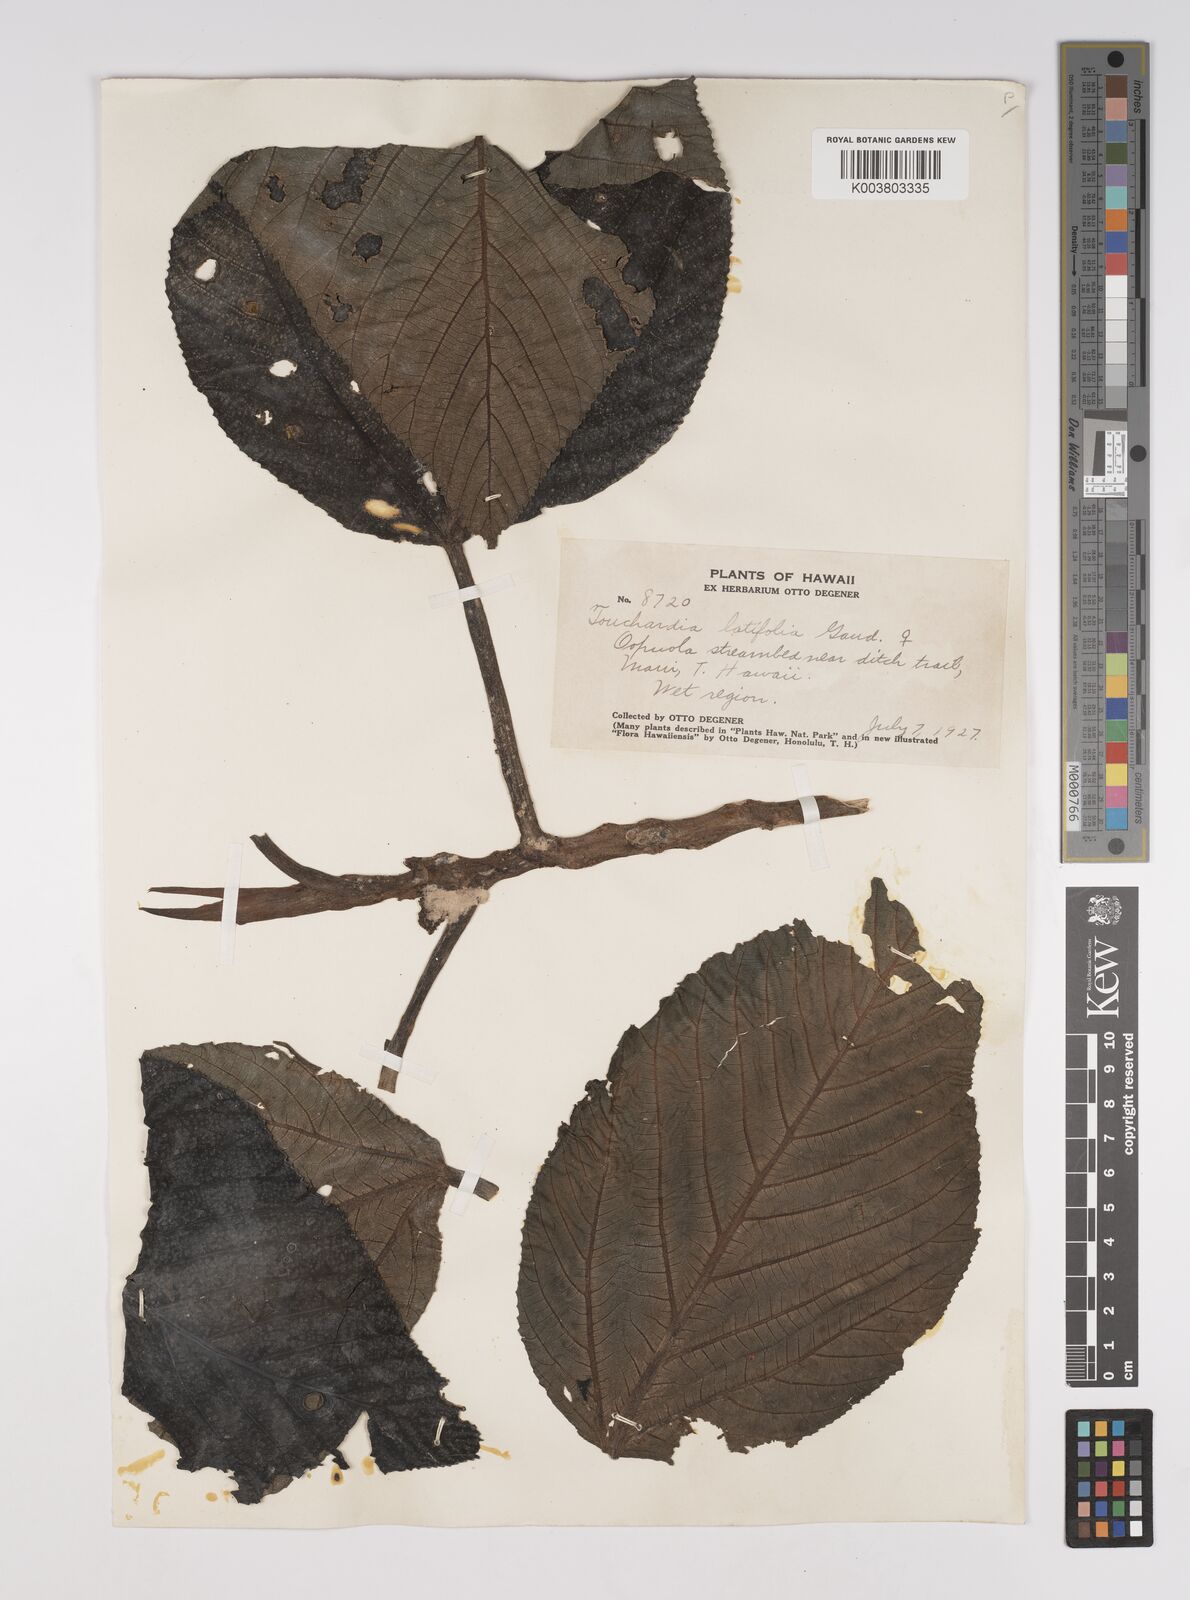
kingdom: Plantae
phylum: Tracheophyta
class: Magnoliopsida
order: Rosales
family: Urticaceae
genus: Touchardia
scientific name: Touchardia latifolia
